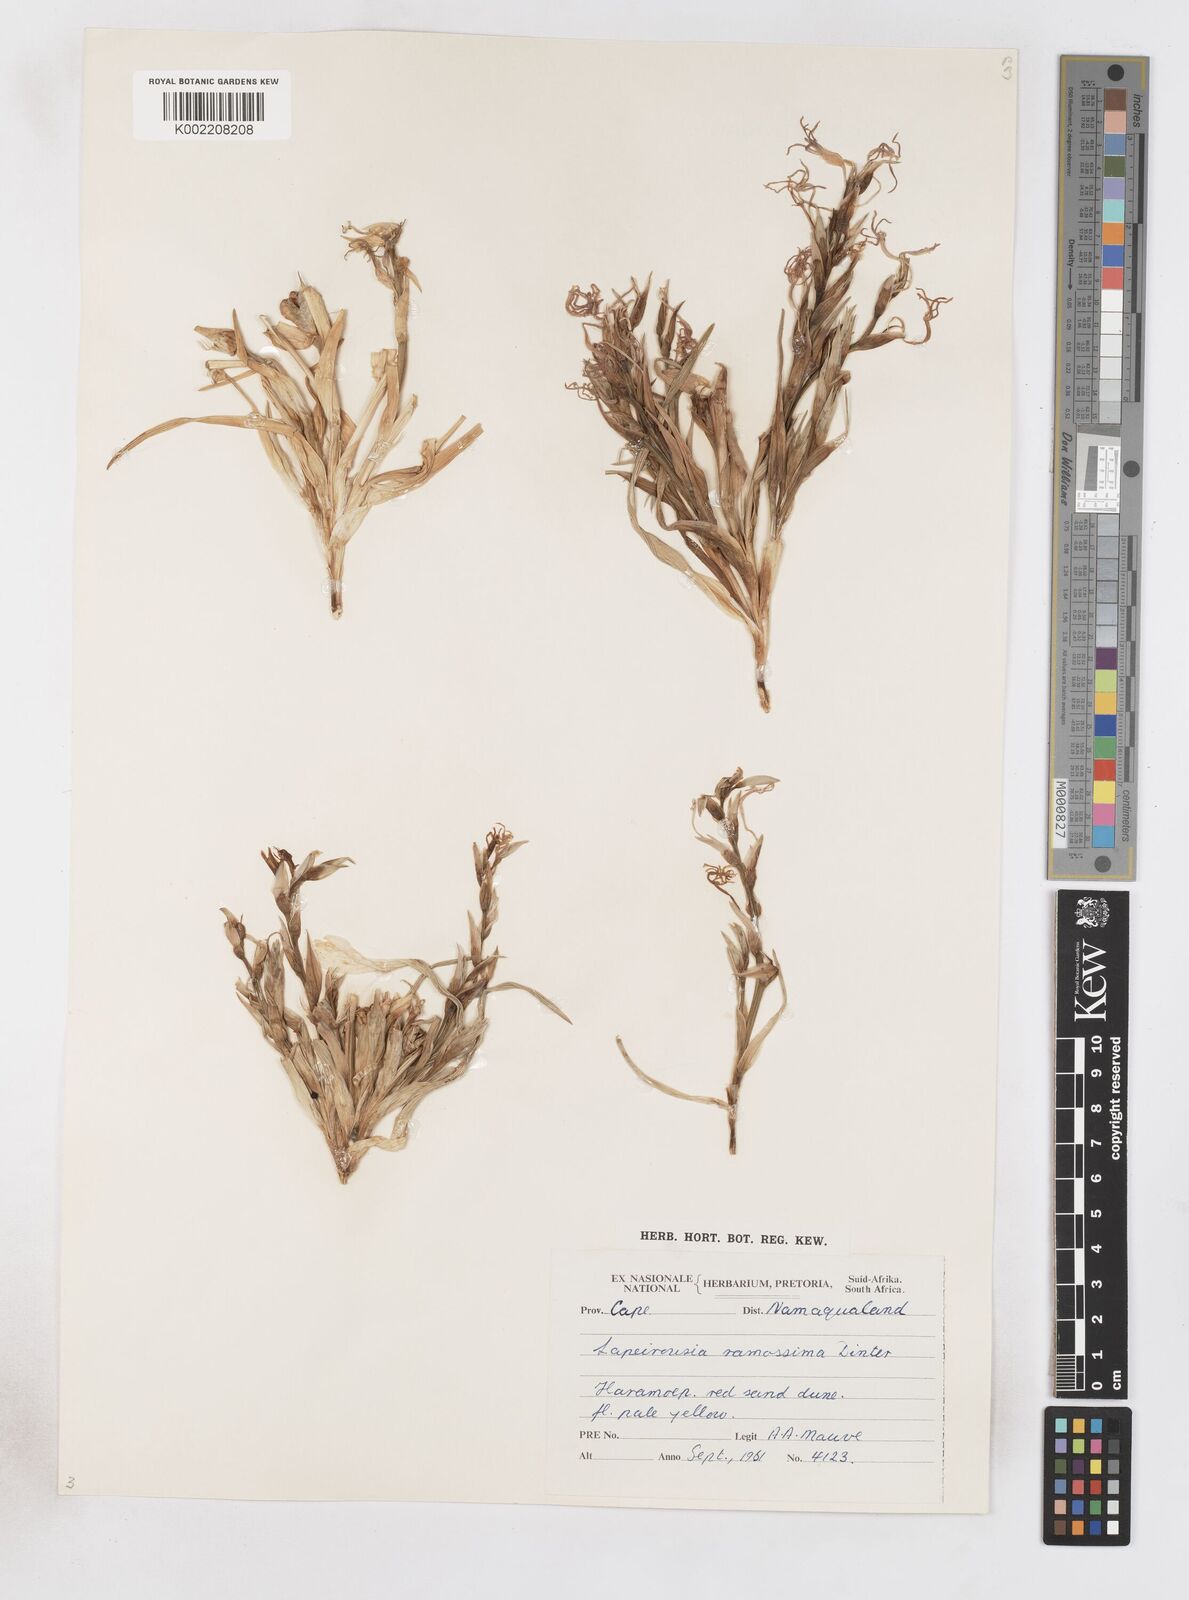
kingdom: Plantae
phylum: Tracheophyta
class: Liliopsida
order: Asparagales
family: Iridaceae
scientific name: Iridaceae
